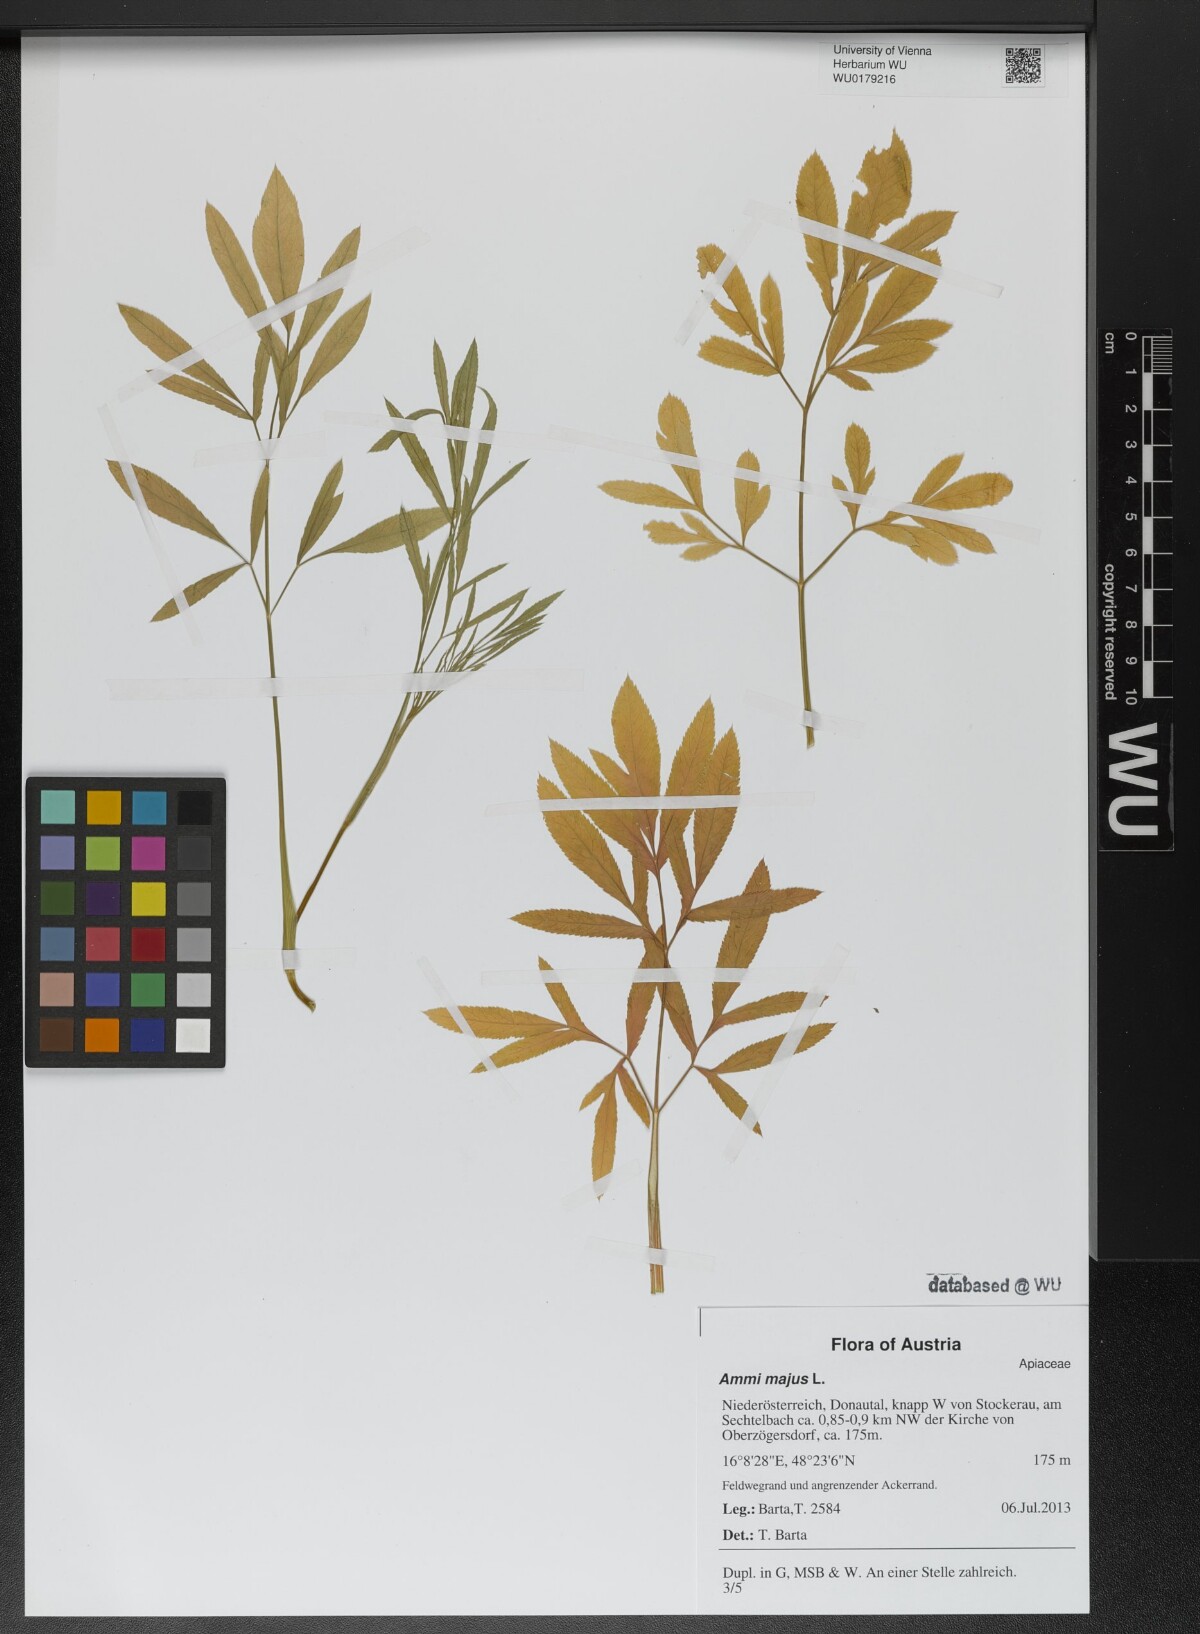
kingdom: Plantae
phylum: Tracheophyta
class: Magnoliopsida
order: Apiales
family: Apiaceae
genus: Ammi
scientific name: Ammi majus
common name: Bullwort
